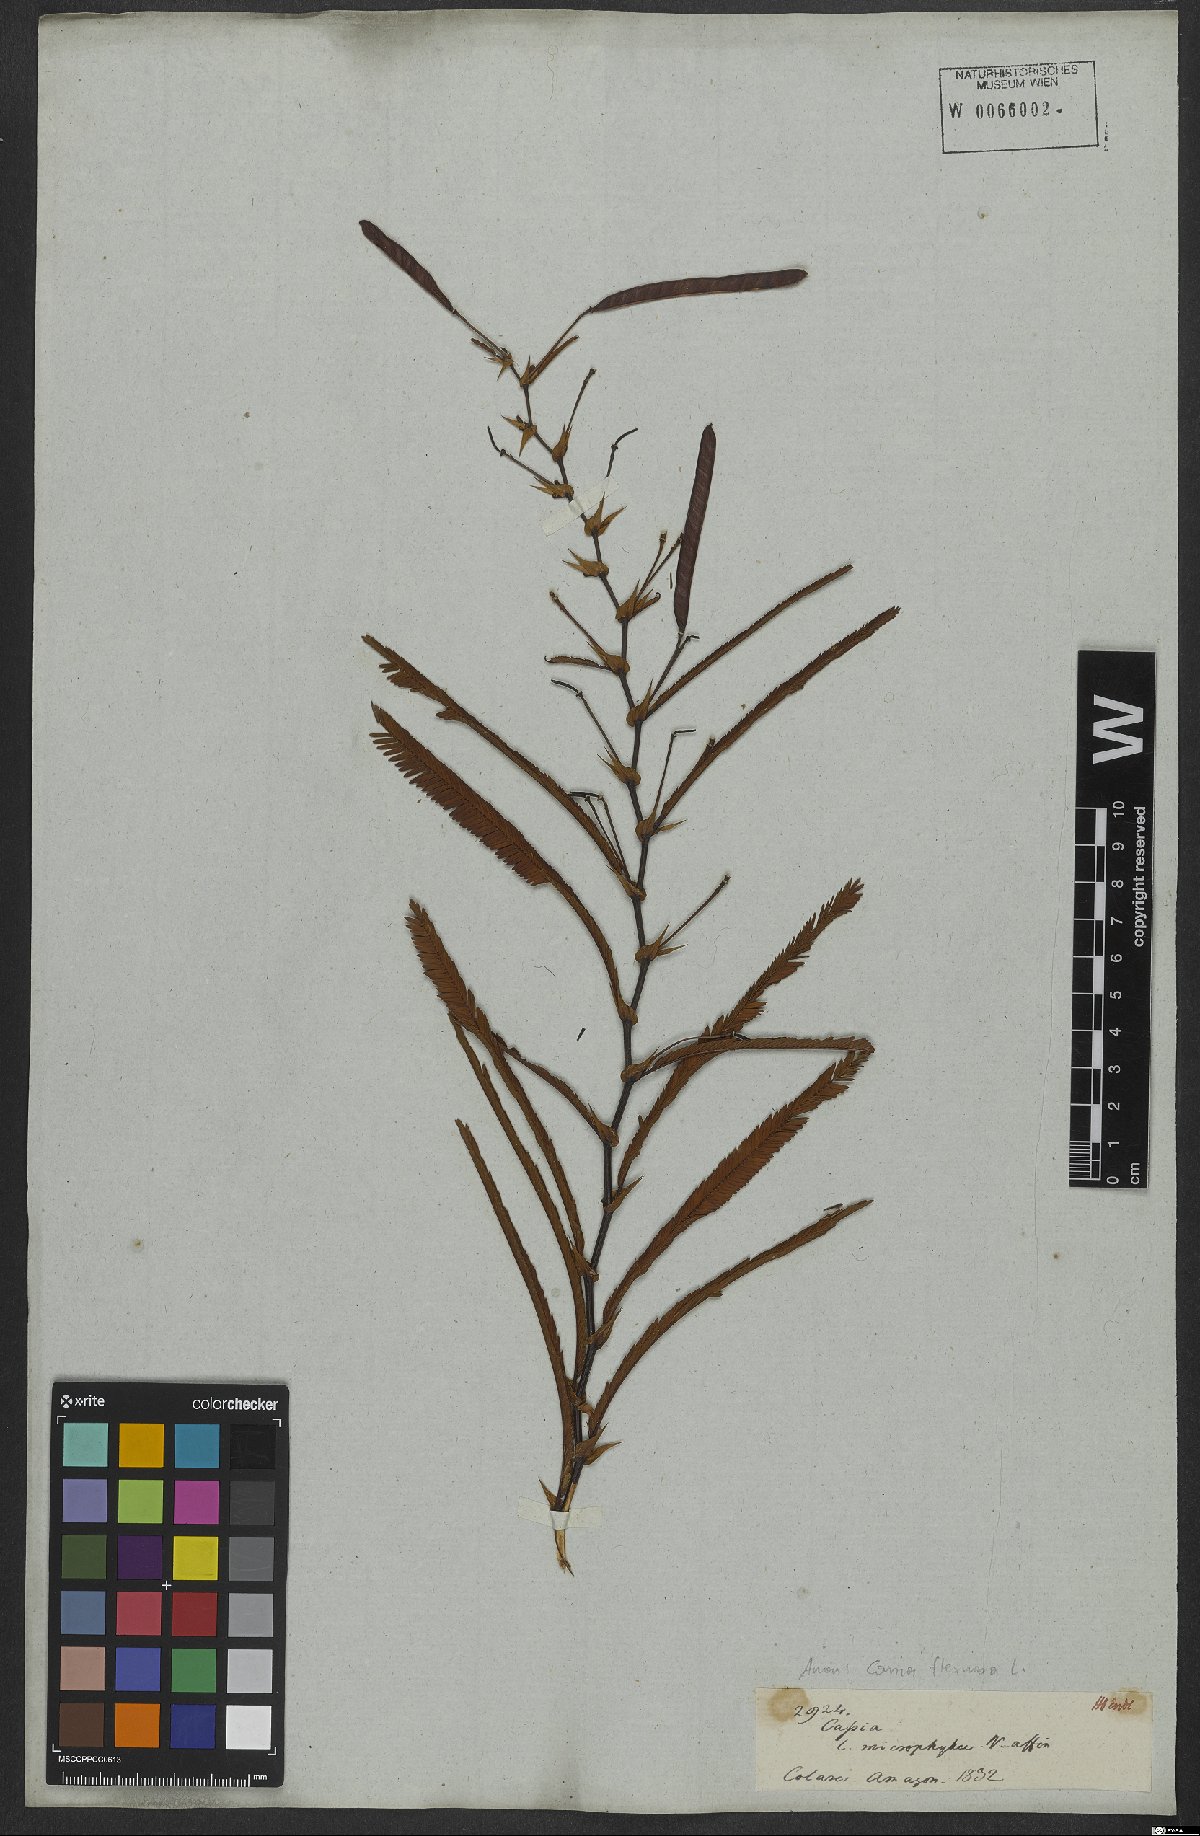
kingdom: Plantae
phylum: Tracheophyta
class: Magnoliopsida
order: Fabales
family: Fabaceae
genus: Chamaecrista
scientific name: Chamaecrista flexuosa
